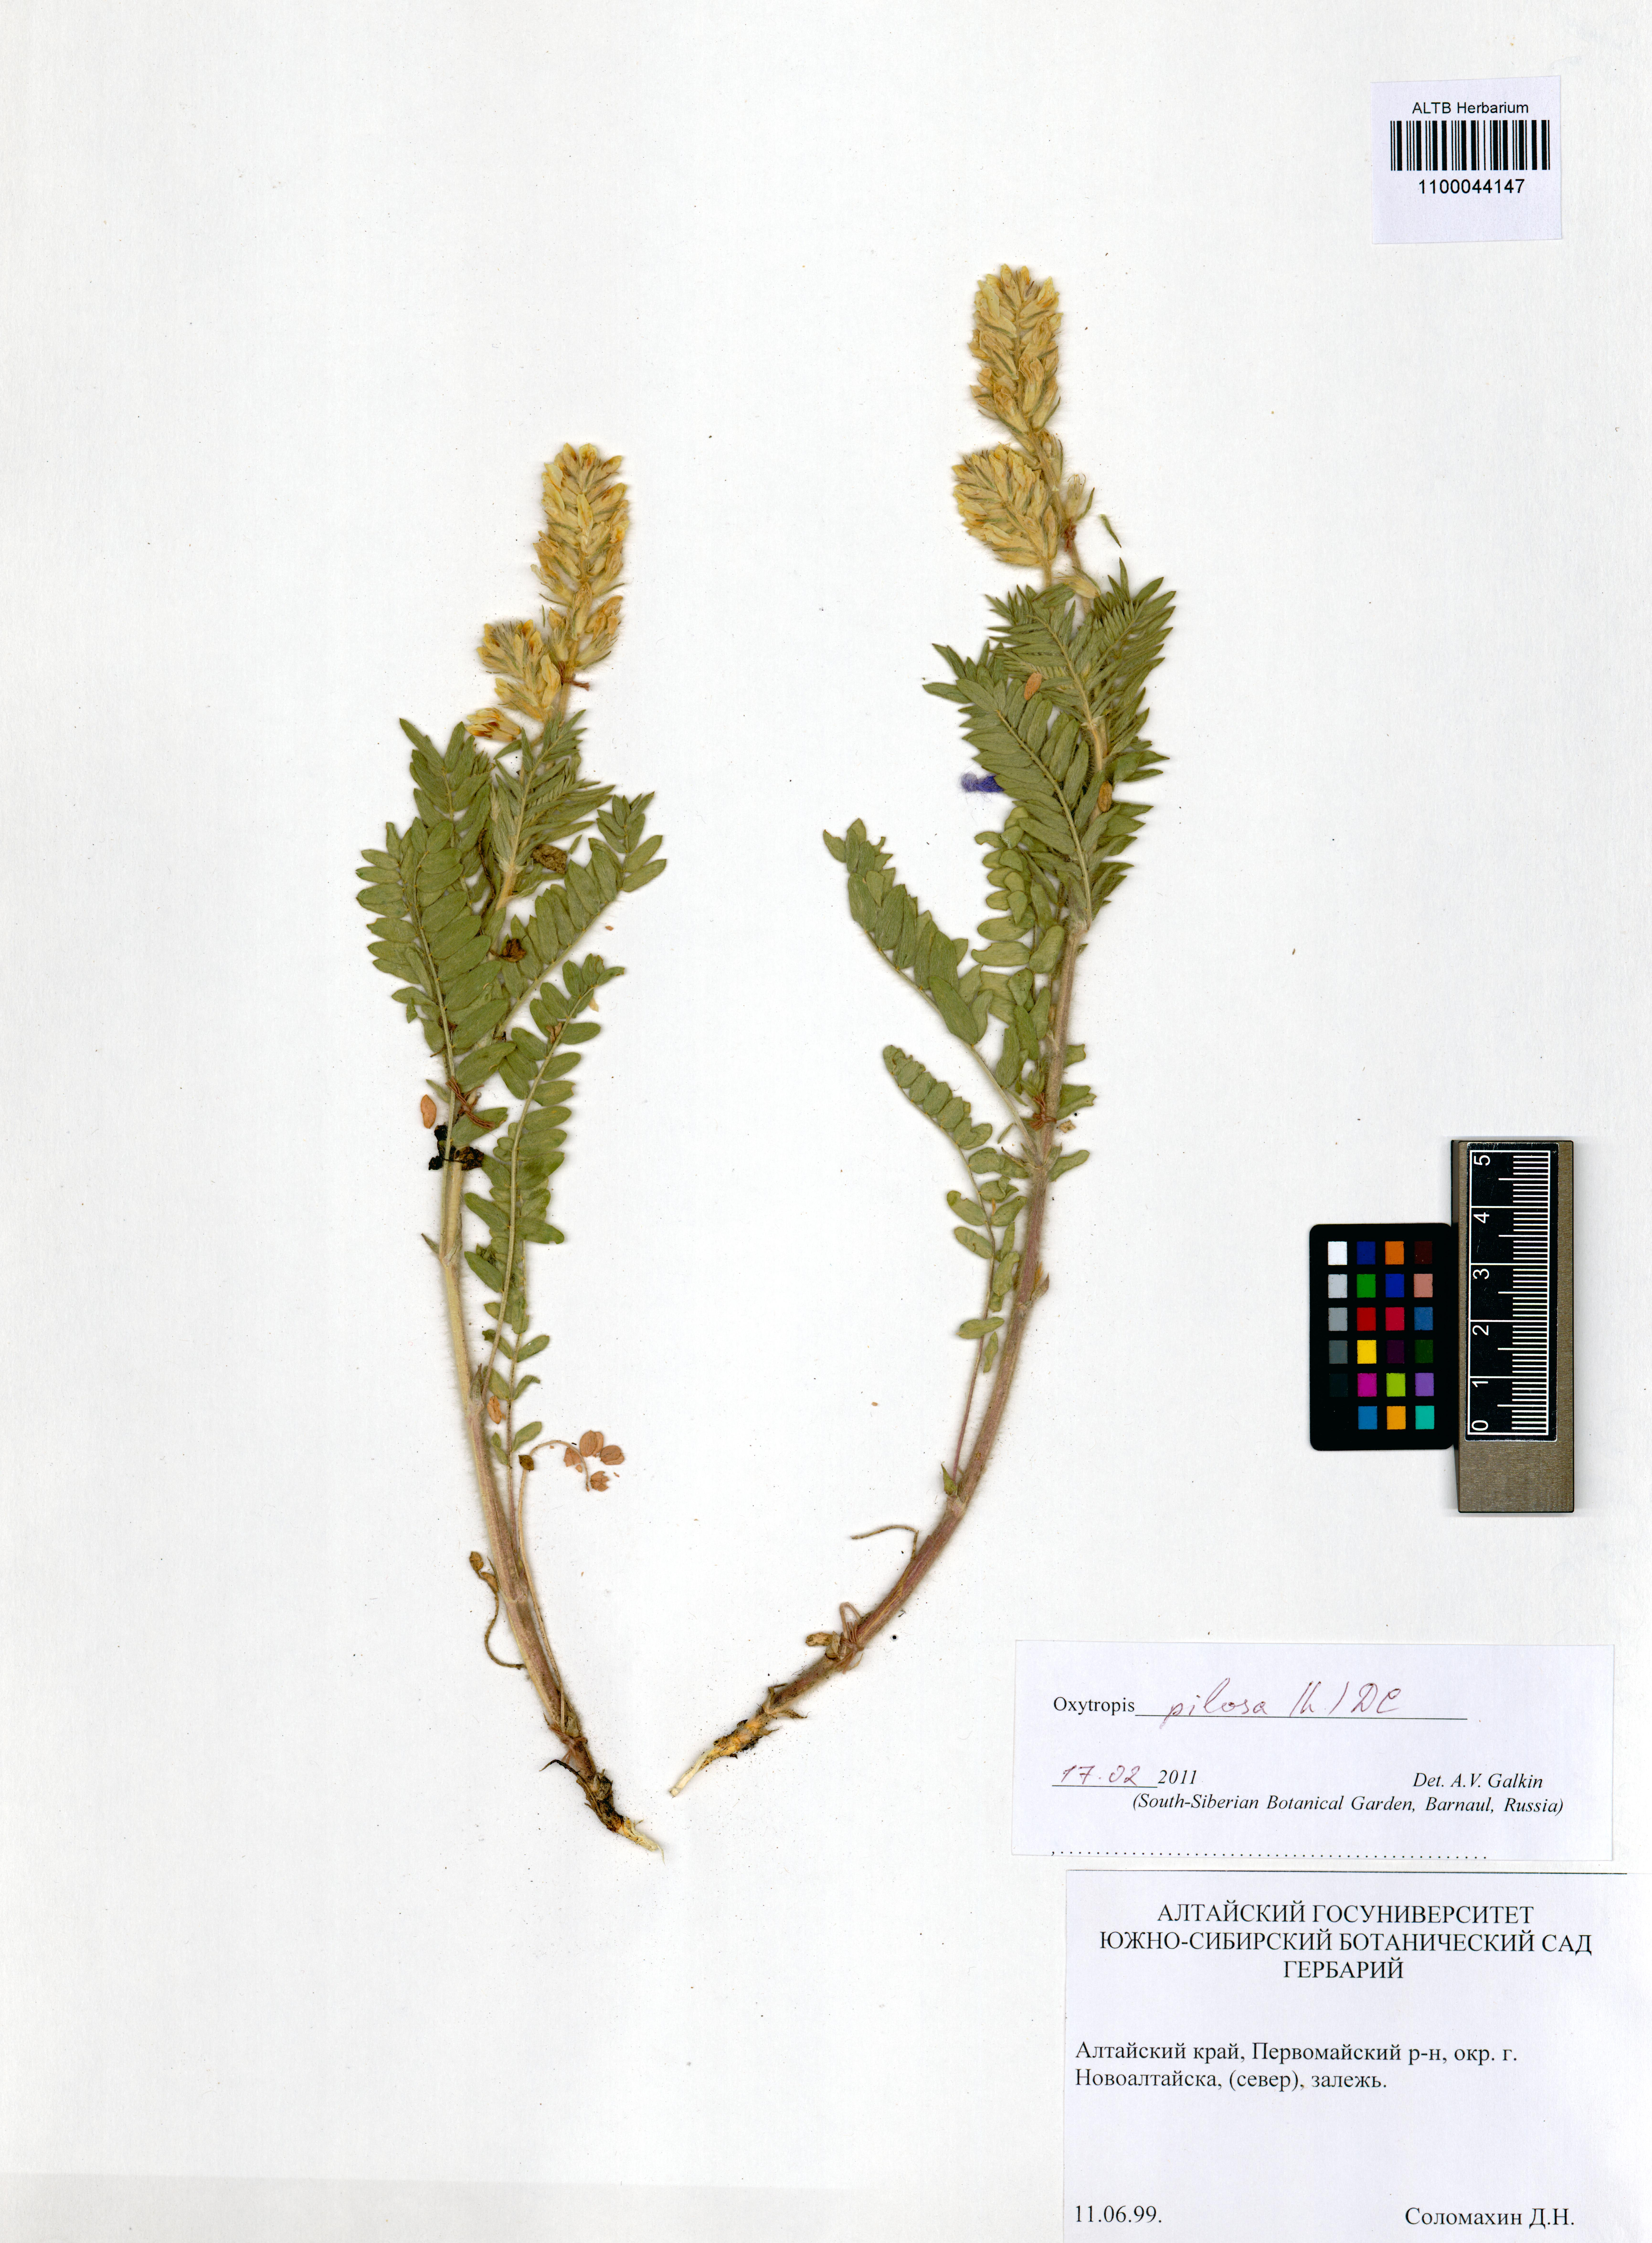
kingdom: Plantae
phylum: Tracheophyta
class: Magnoliopsida
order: Fabales
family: Fabaceae
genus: Oxytropis
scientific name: Oxytropis pilosa
